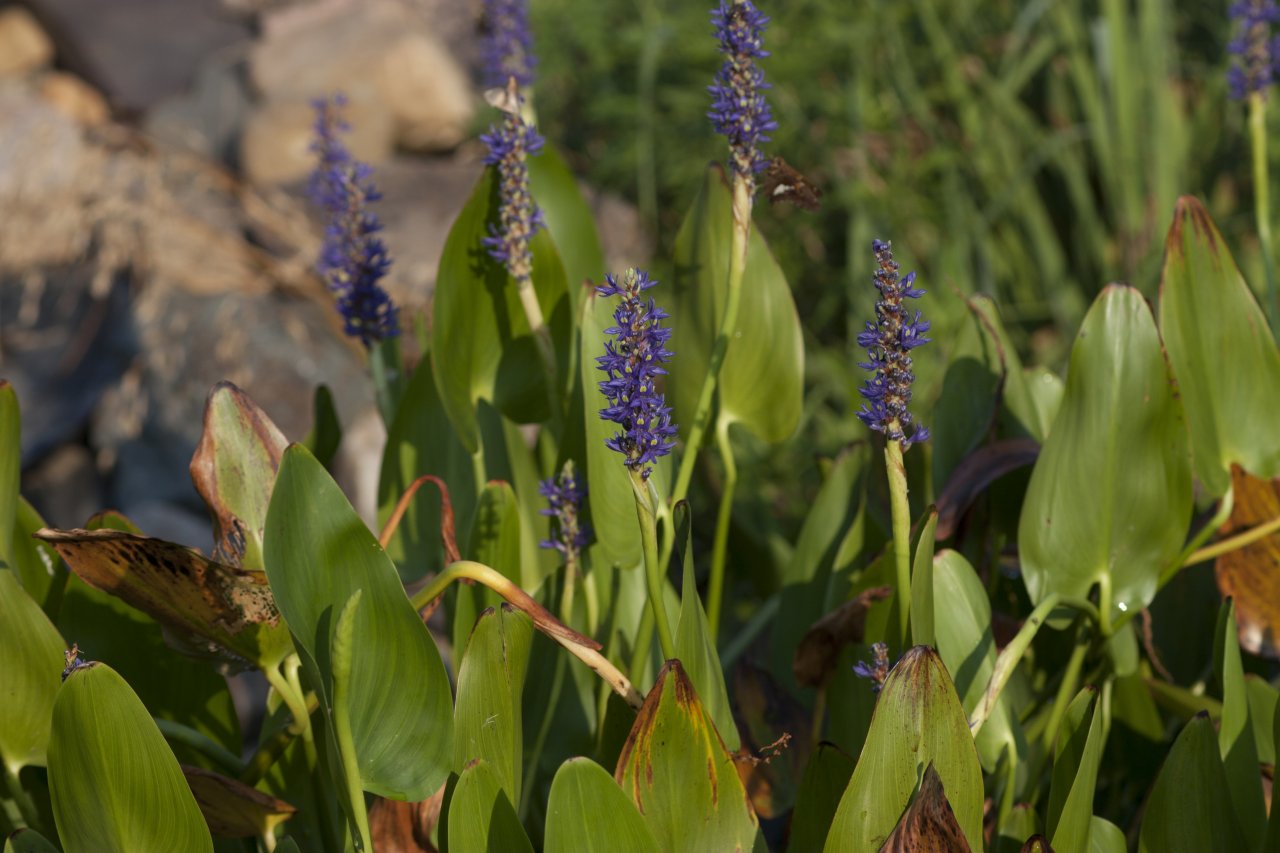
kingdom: Animalia
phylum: Arthropoda
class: Insecta
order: Lepidoptera
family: Hesperiidae
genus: Epargyreus
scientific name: Epargyreus clarus
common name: Silver-spotted Skipper
